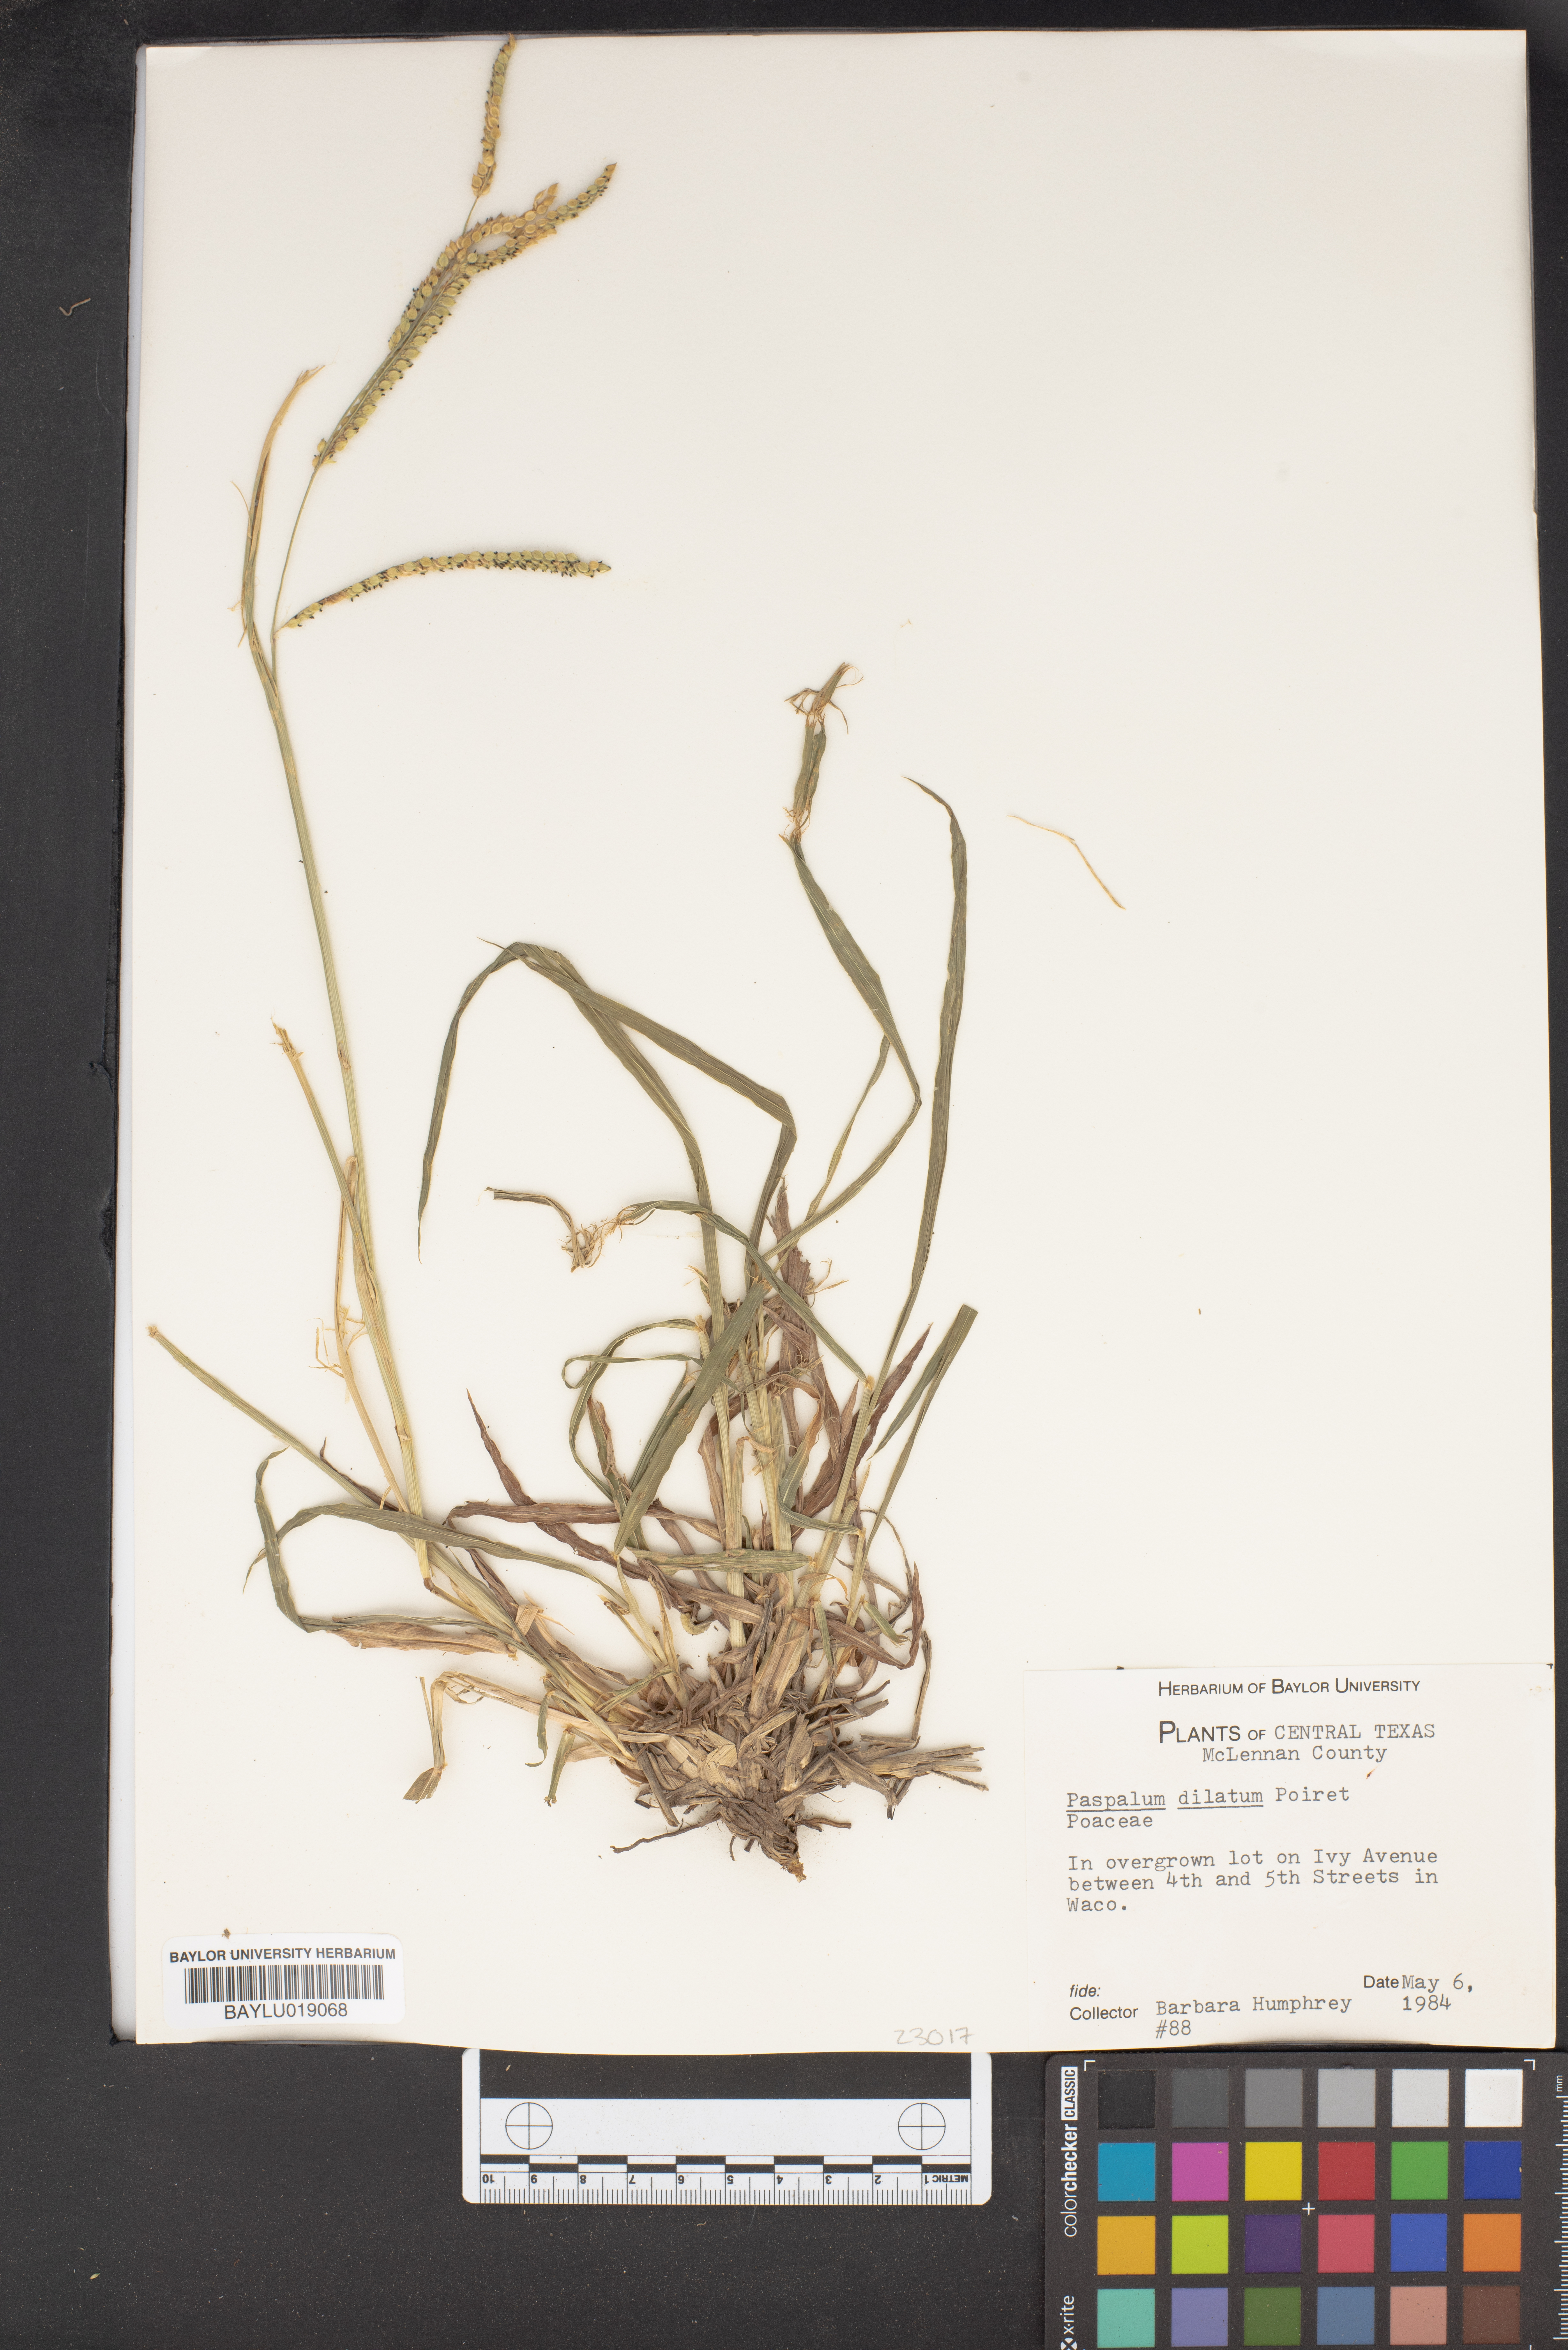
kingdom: Plantae
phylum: Tracheophyta
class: Liliopsida
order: Poales
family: Poaceae
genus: Paspalum
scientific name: Paspalum dilatatum
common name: Dallisgrass
